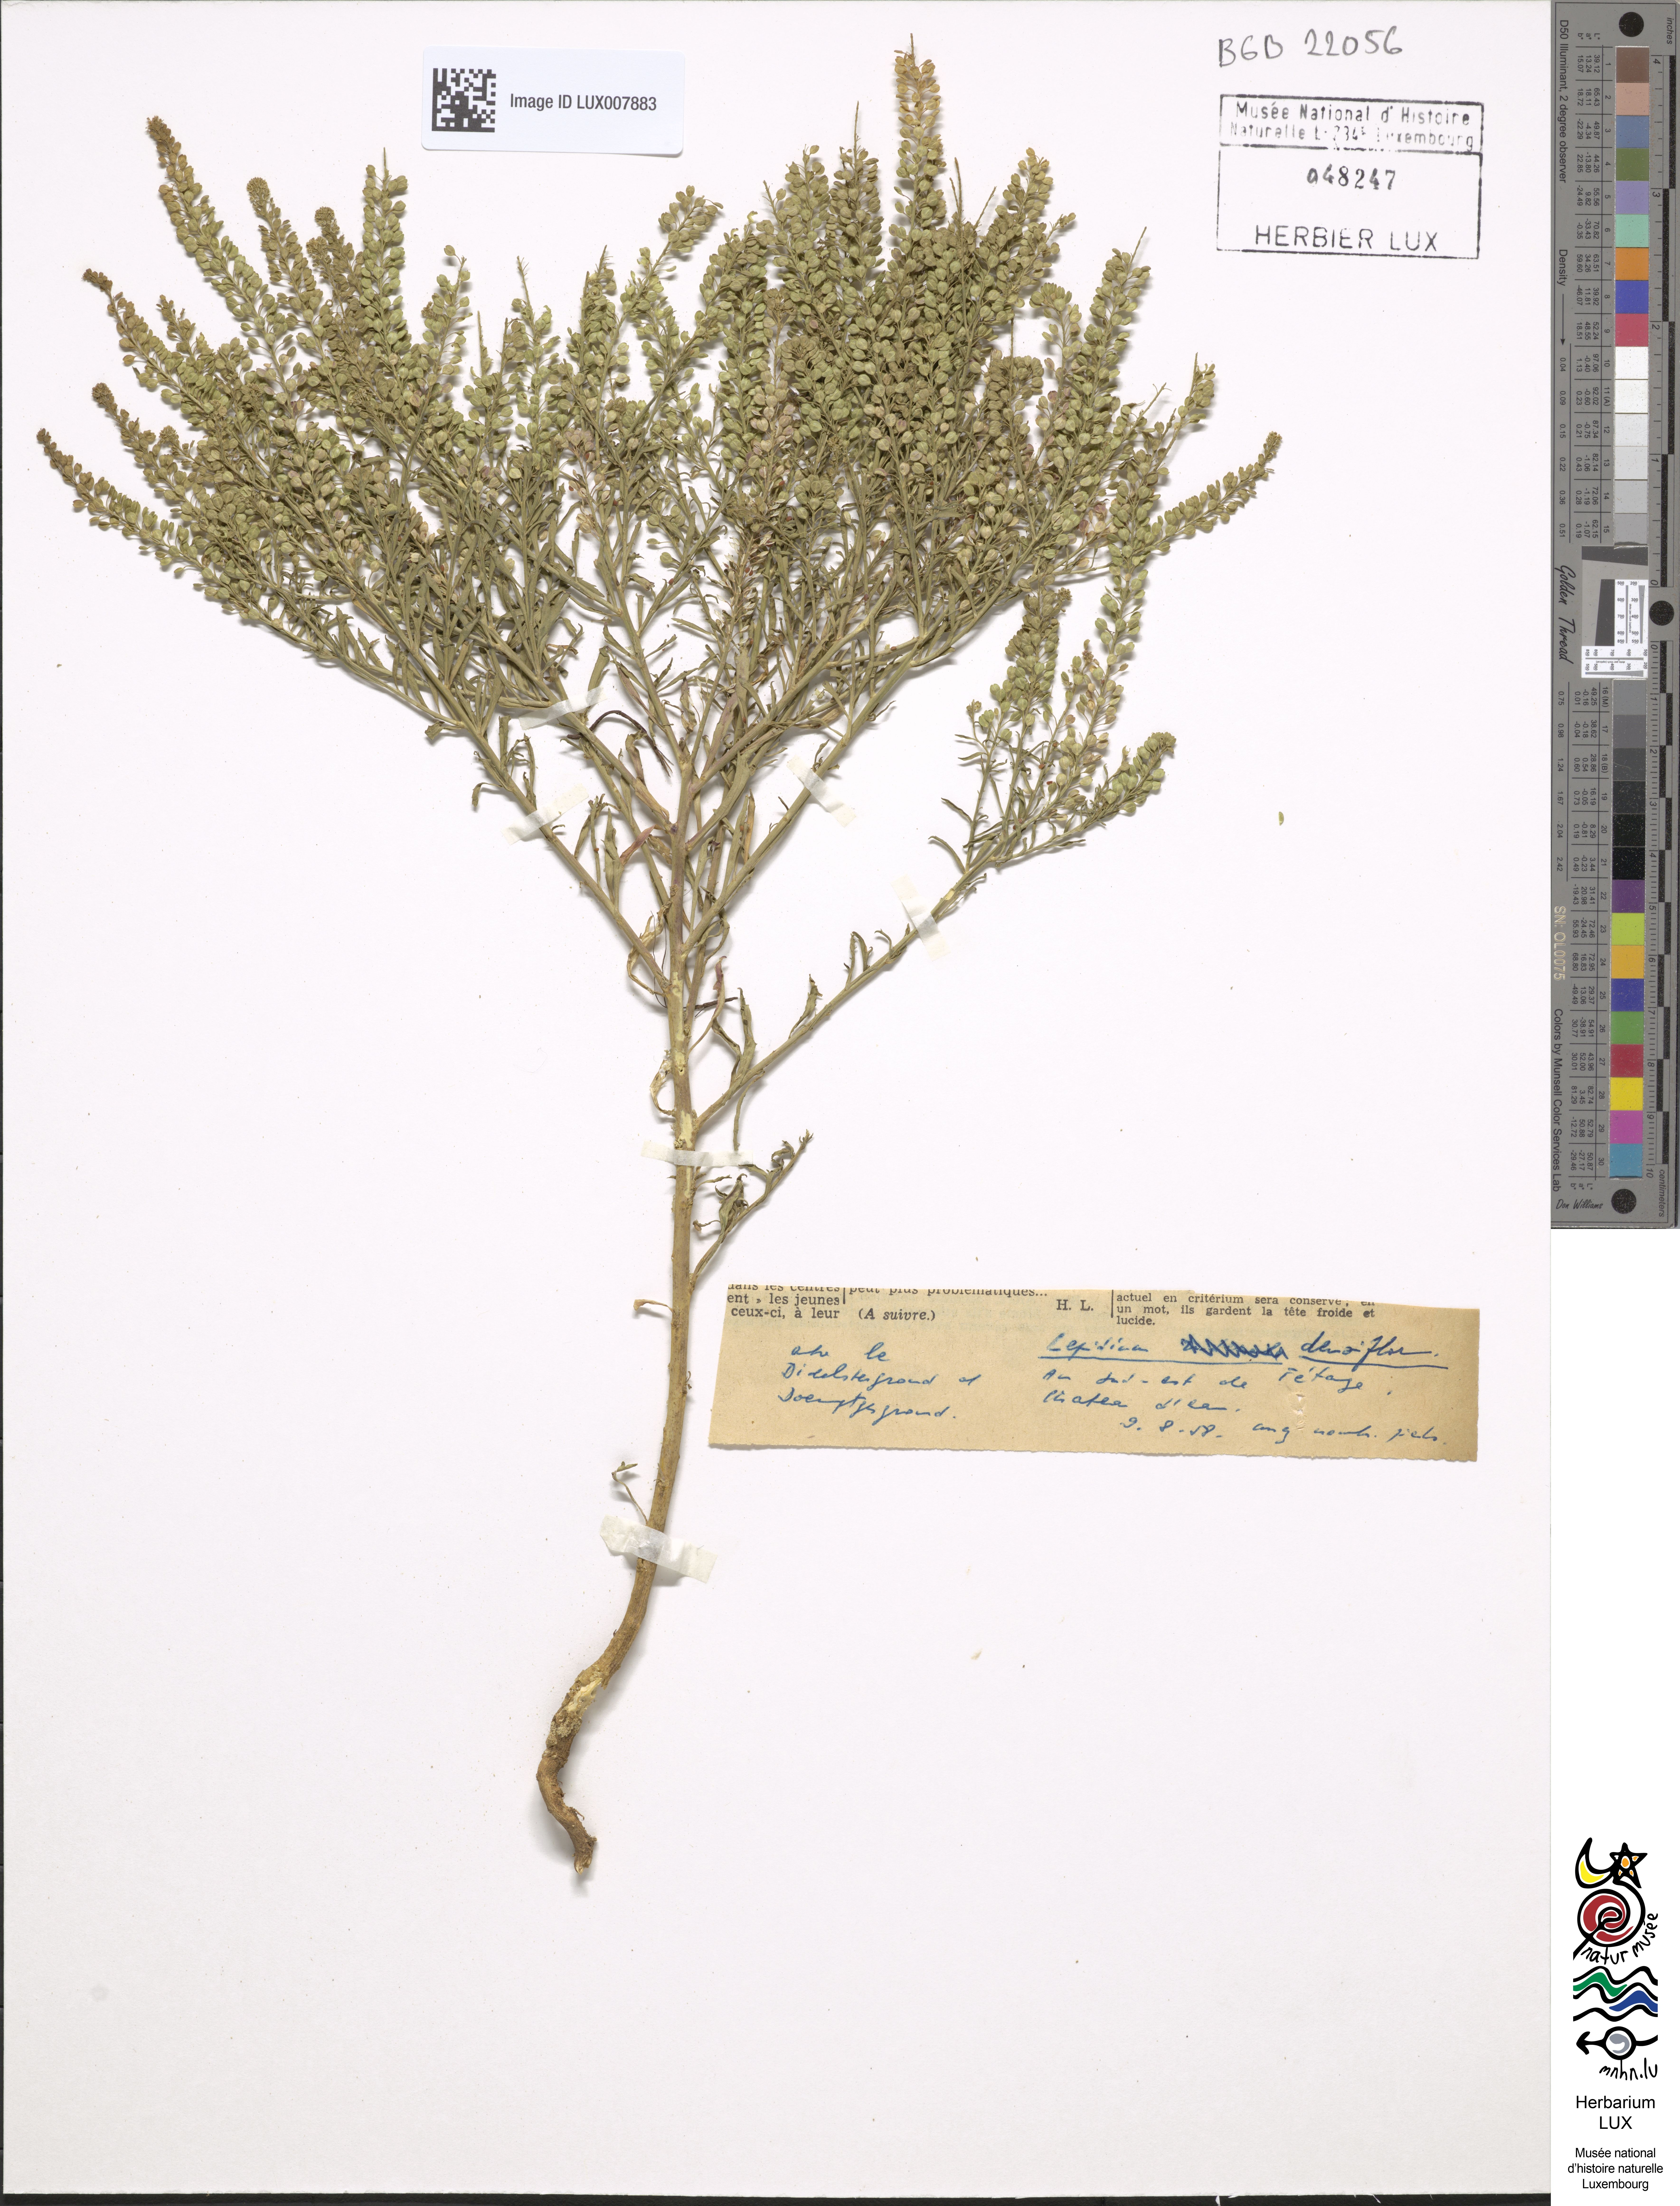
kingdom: Plantae
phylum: Tracheophyta
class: Magnoliopsida
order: Brassicales
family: Brassicaceae
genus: Lepidium
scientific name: Lepidium densiflorum
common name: Miner's pepperwort
